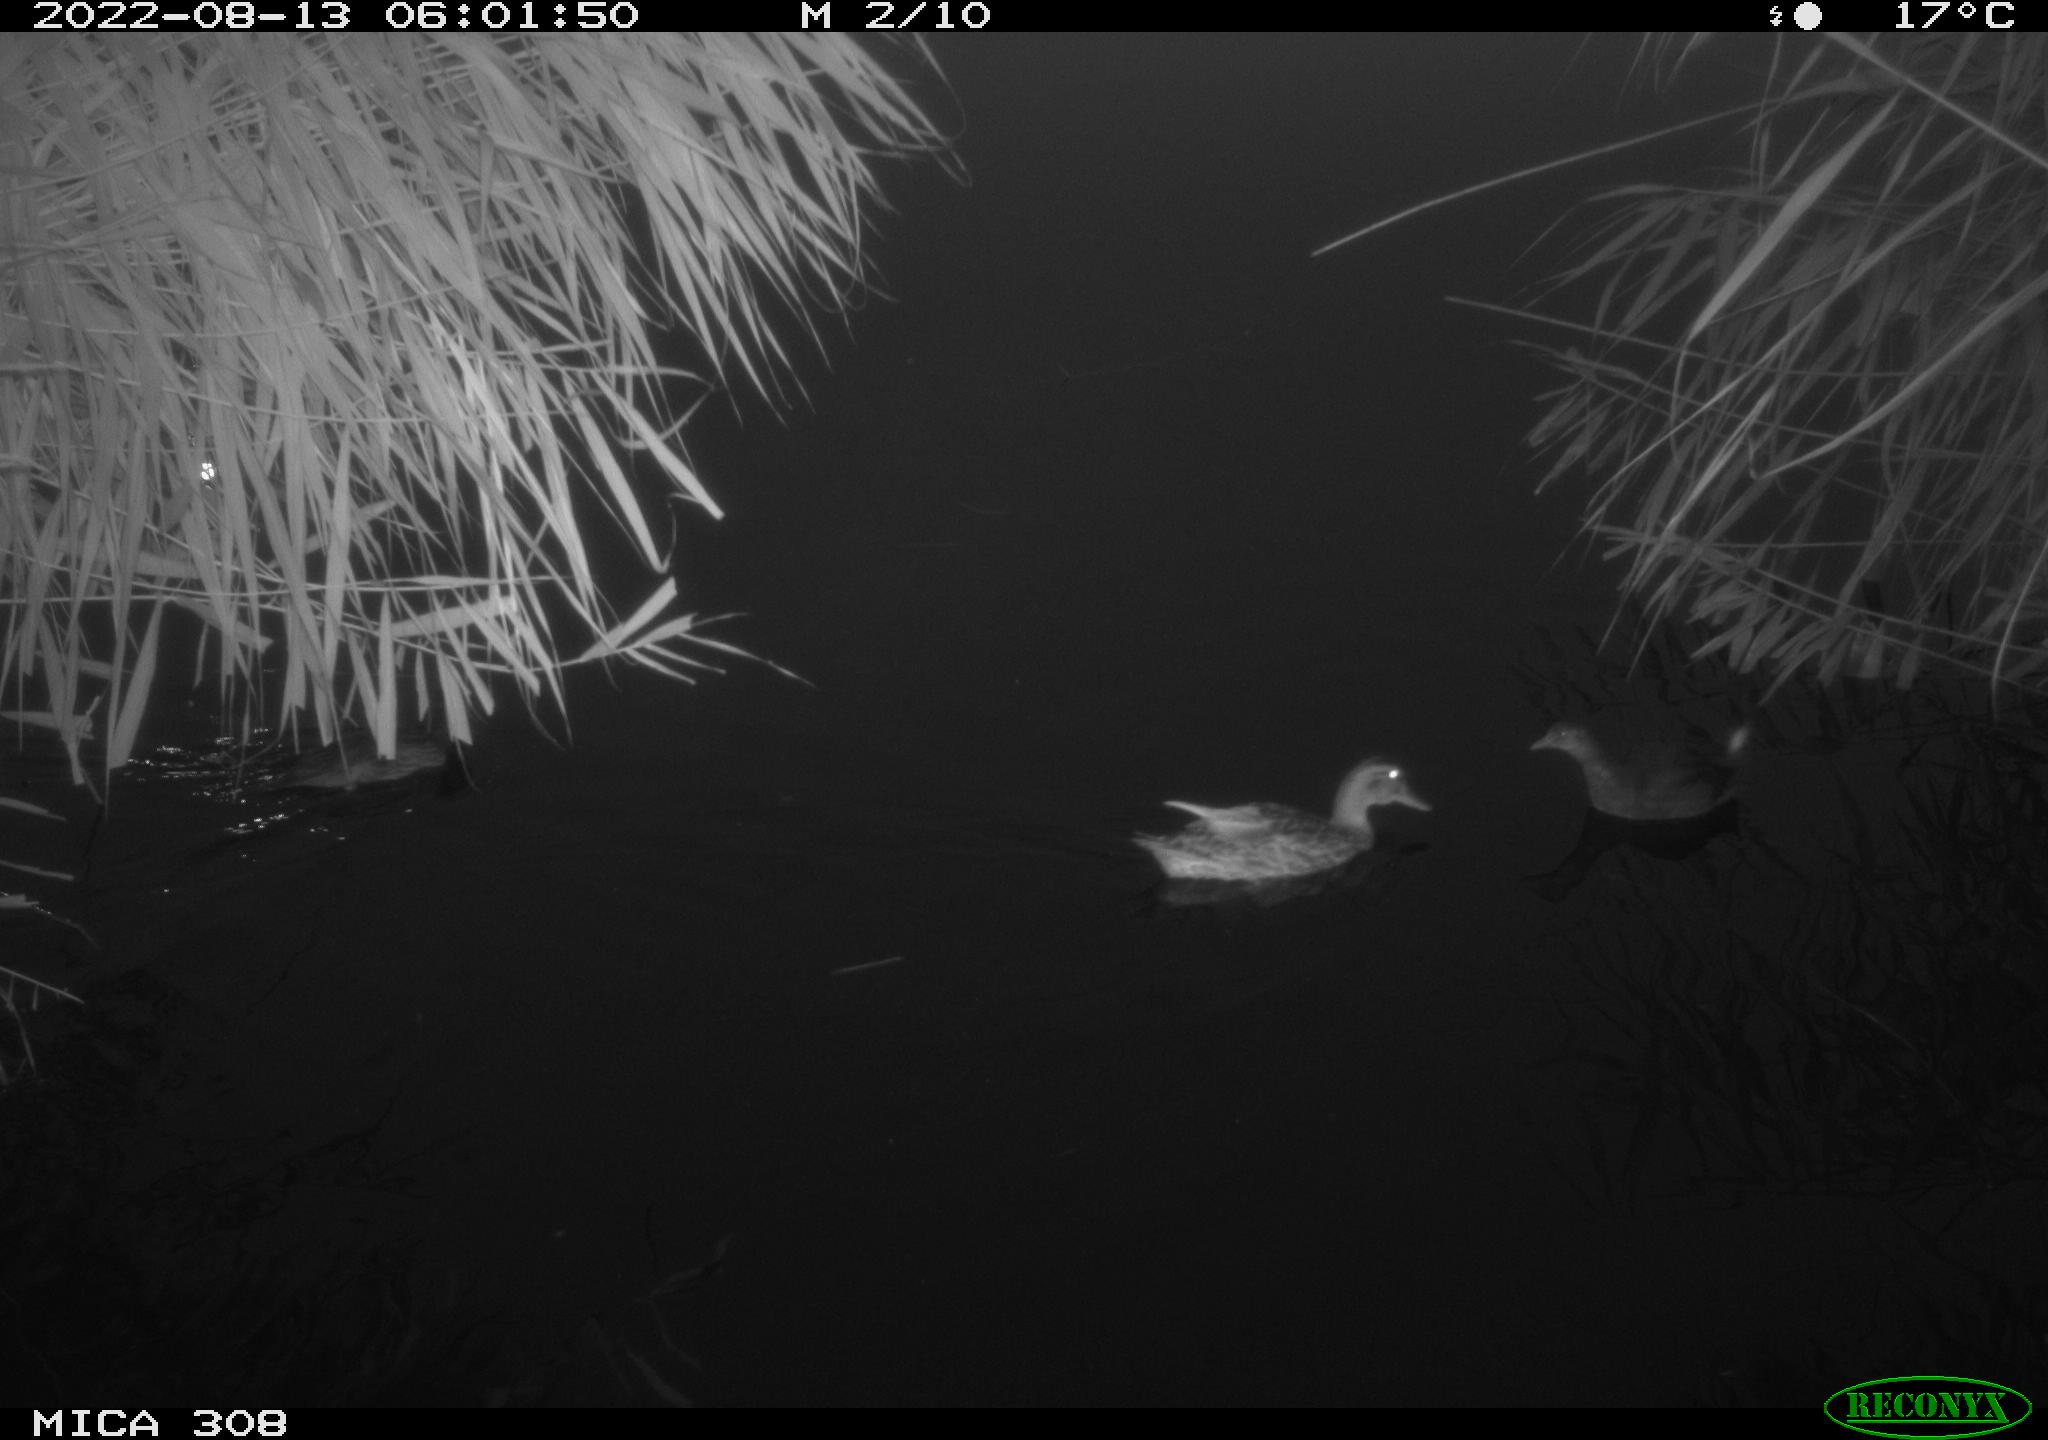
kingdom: Animalia
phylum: Chordata
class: Aves
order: Anseriformes
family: Anatidae
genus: Anas
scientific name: Anas platyrhynchos
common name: Mallard
